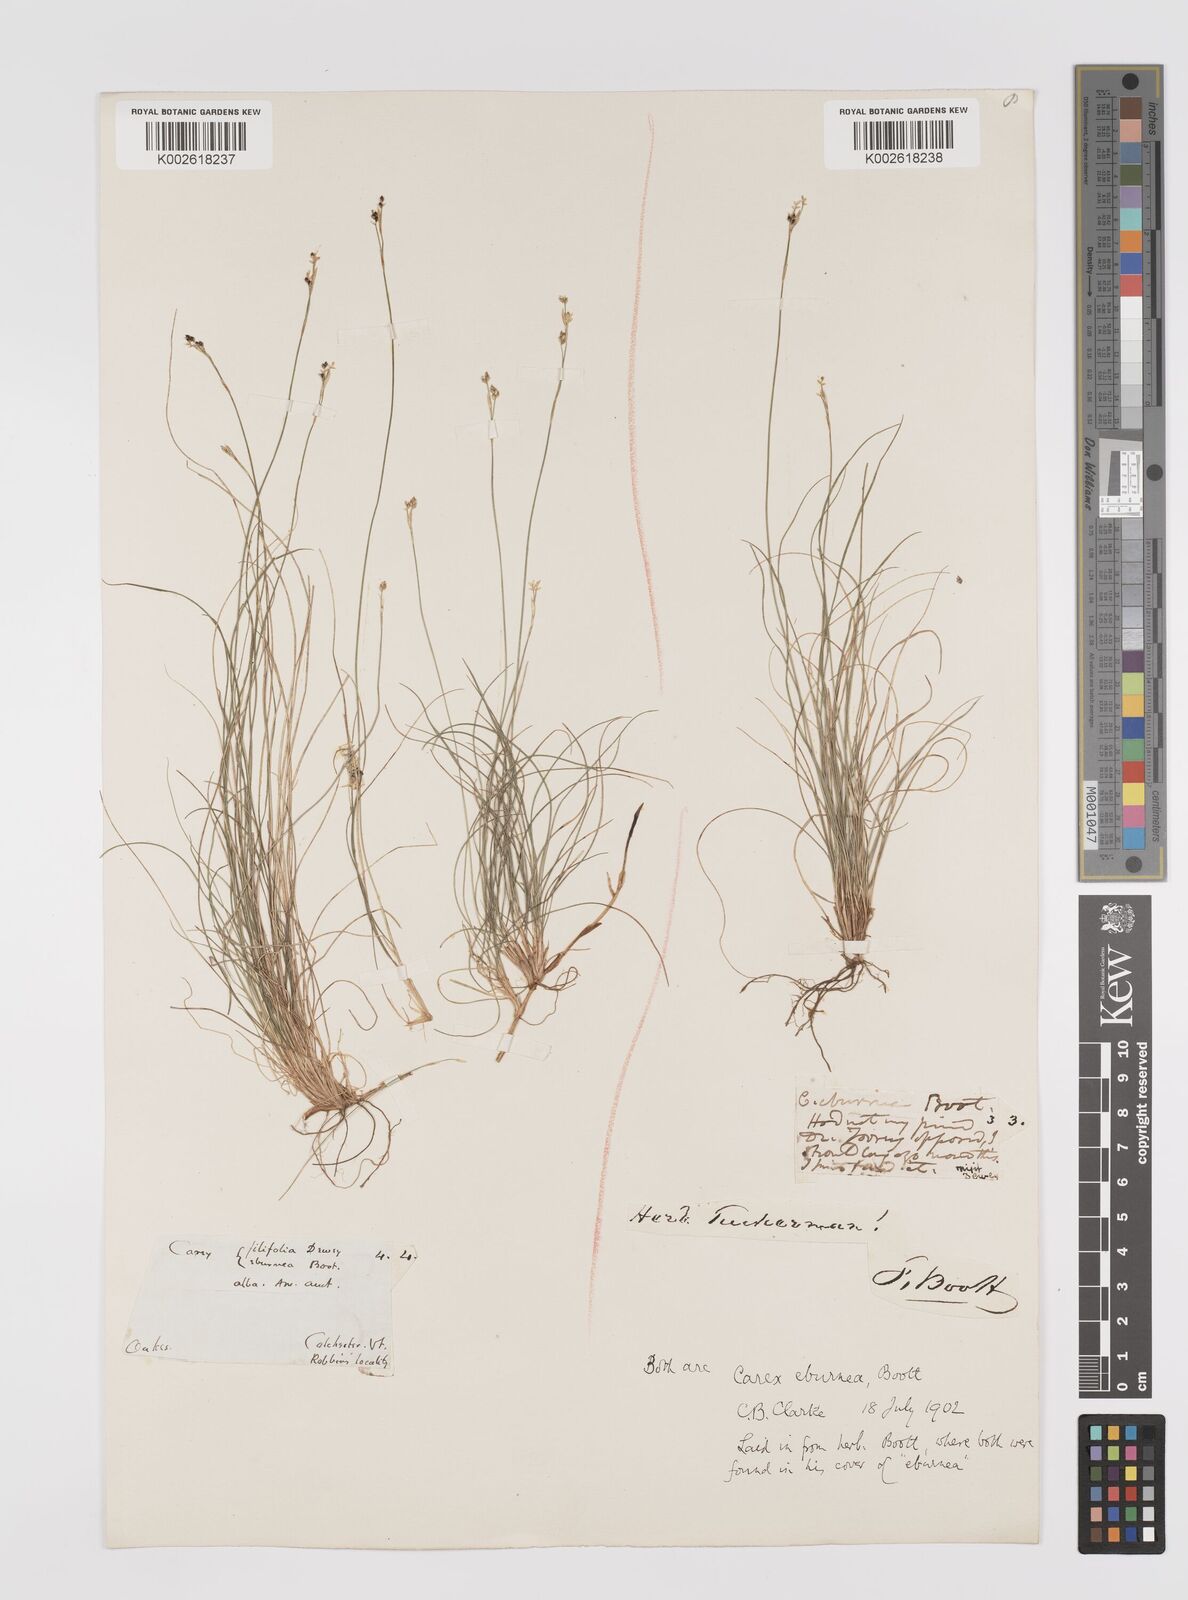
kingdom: Plantae
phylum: Tracheophyta
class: Liliopsida
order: Poales
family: Cyperaceae
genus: Carex
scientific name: Carex eburnea
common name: Bristle-leaved sedge
